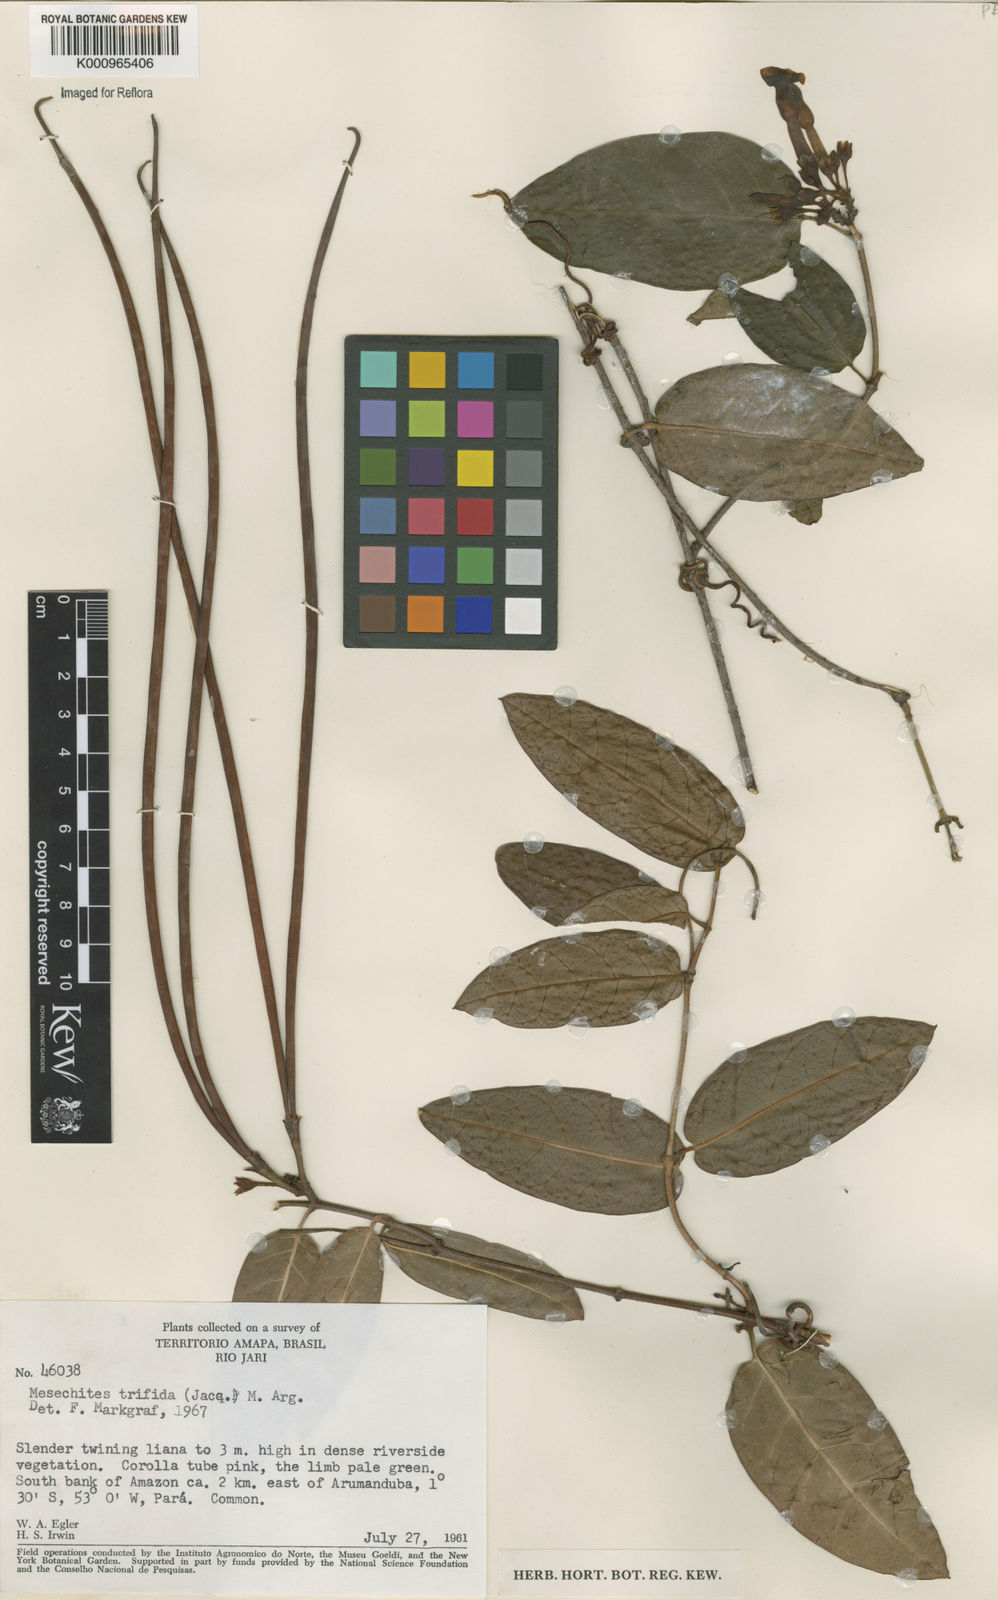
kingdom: Plantae
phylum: Tracheophyta
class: Magnoliopsida
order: Gentianales
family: Apocynaceae
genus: Mesechites
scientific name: Mesechites
